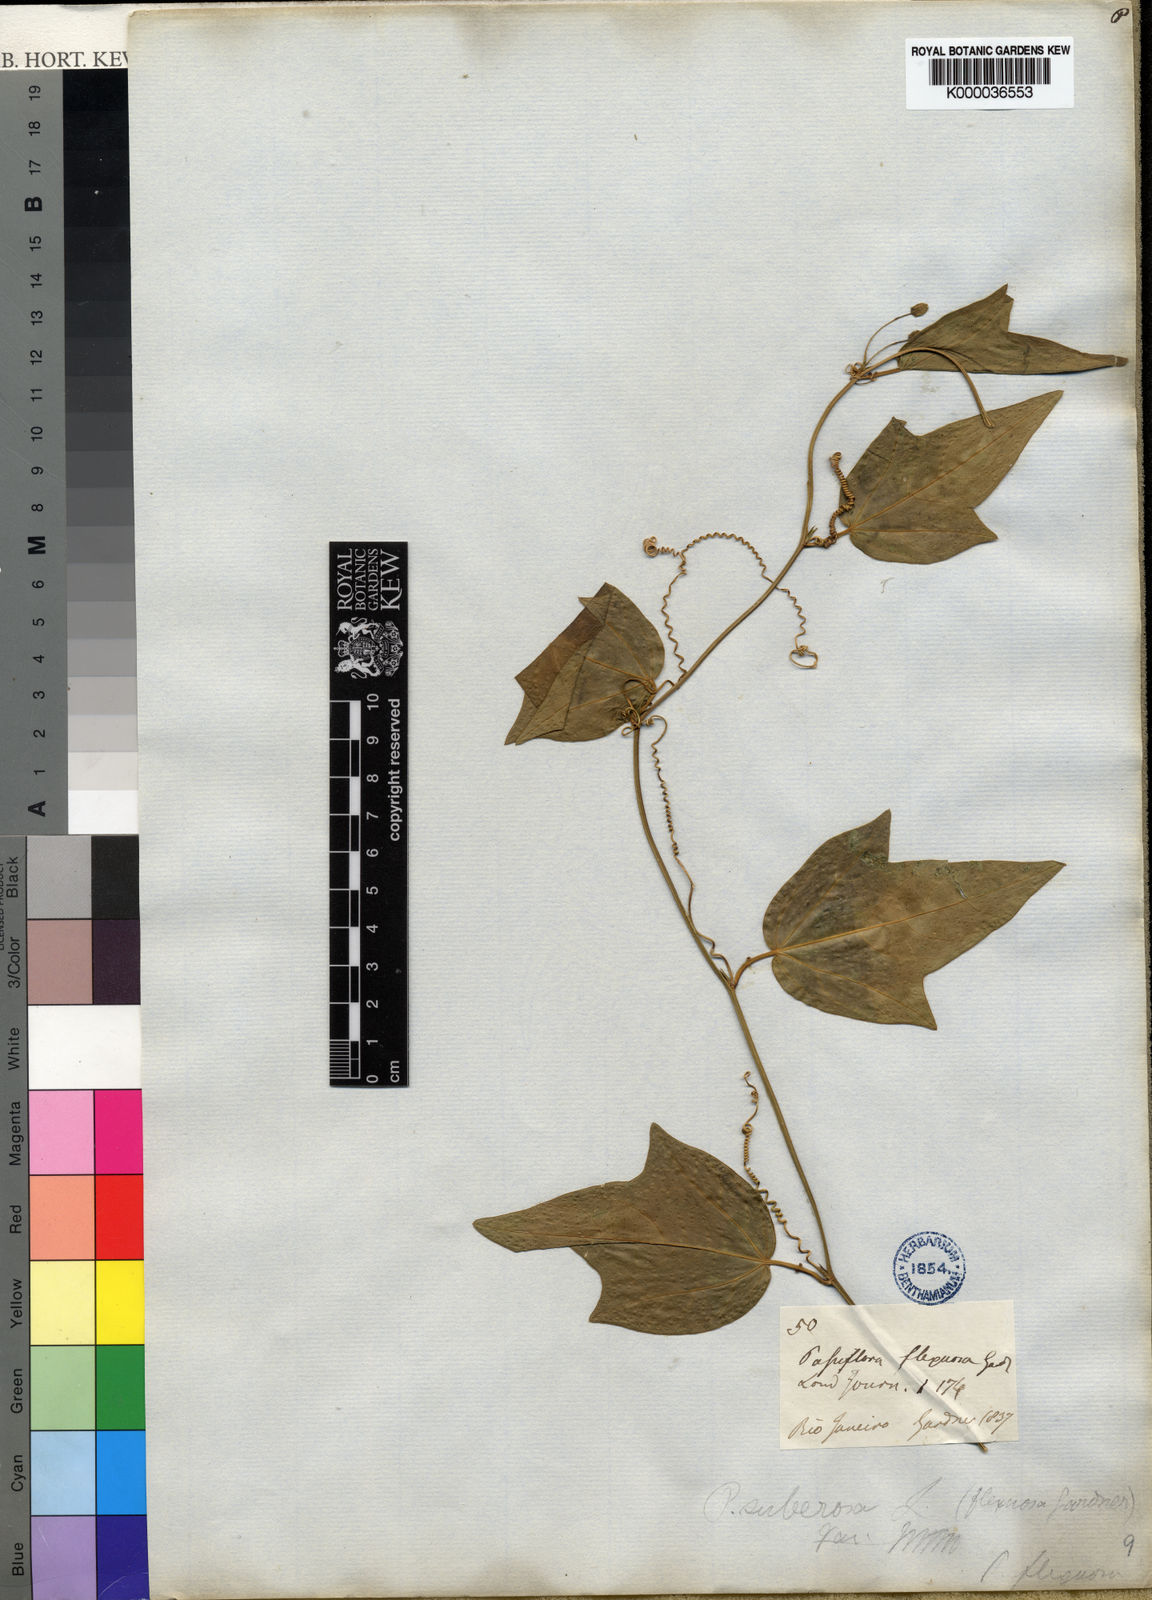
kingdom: Plantae
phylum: Tracheophyta
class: Magnoliopsida
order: Malpighiales
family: Passifloraceae
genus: Passiflora
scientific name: Passiflora suberosa
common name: Wild passionfruit
